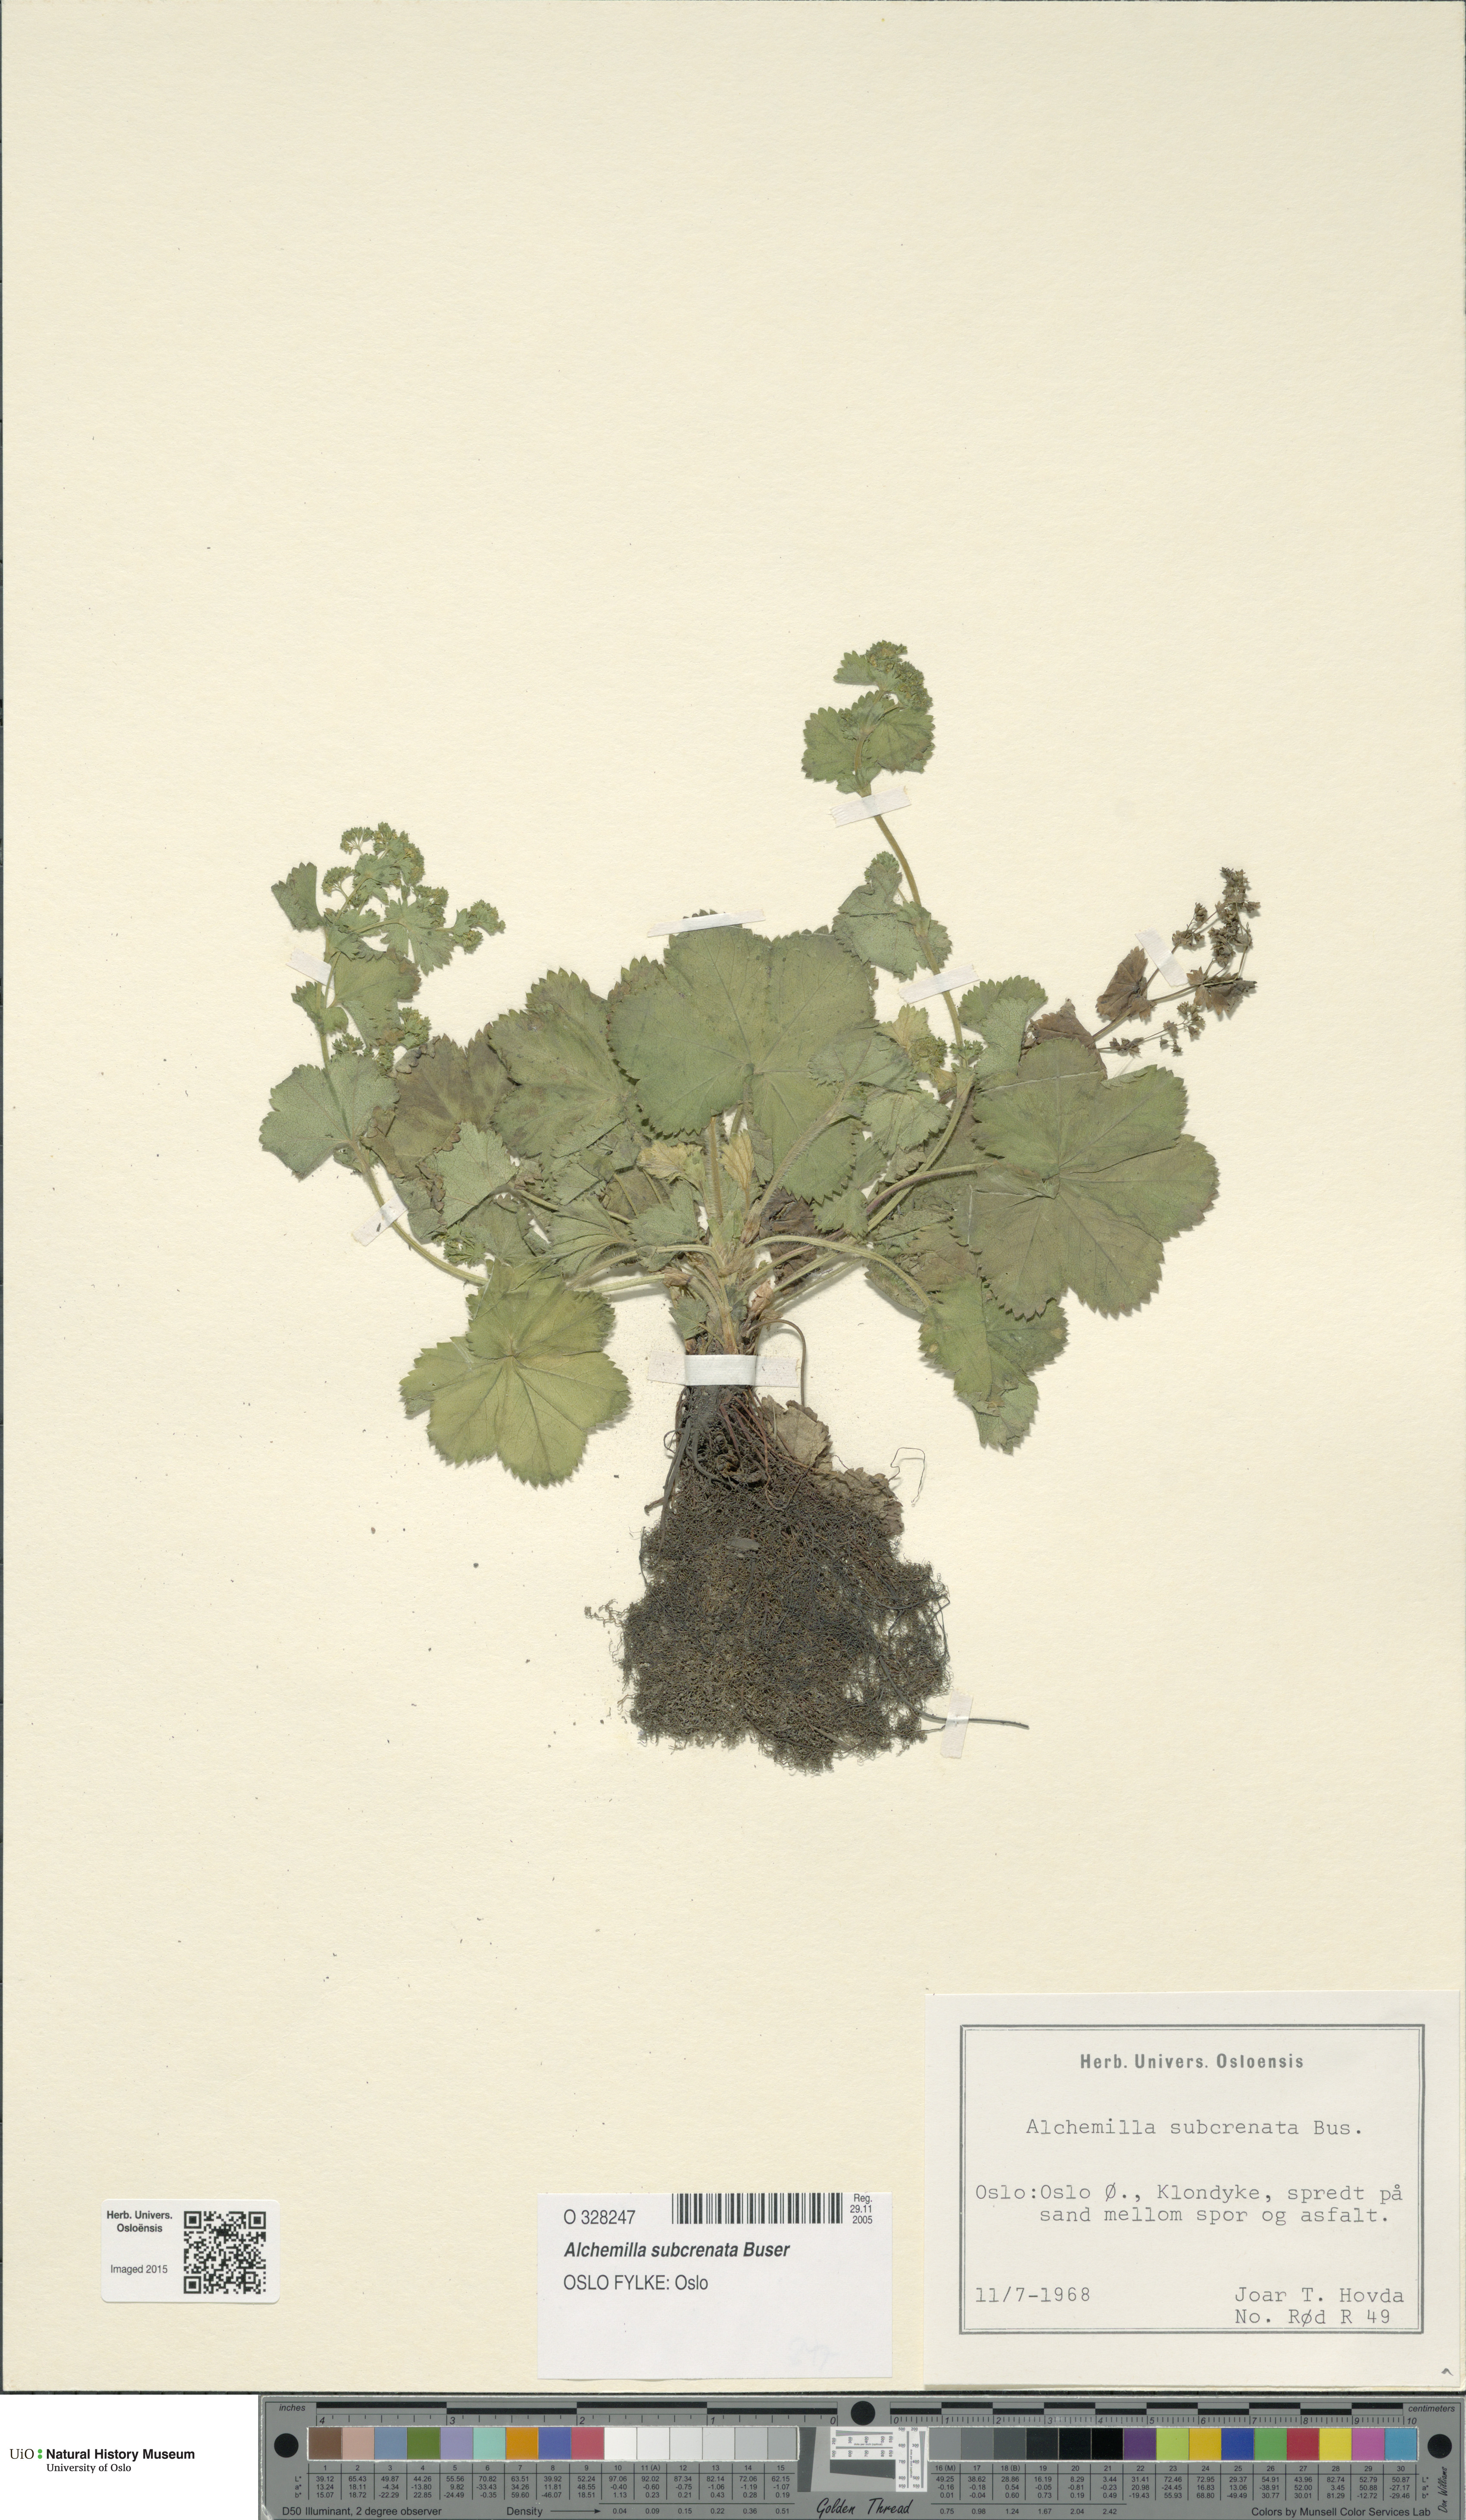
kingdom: Plantae
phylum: Tracheophyta
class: Magnoliopsida
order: Rosales
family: Rosaceae
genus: Alchemilla
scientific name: Alchemilla subcrenata
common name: Broadtooth lady's mantle
